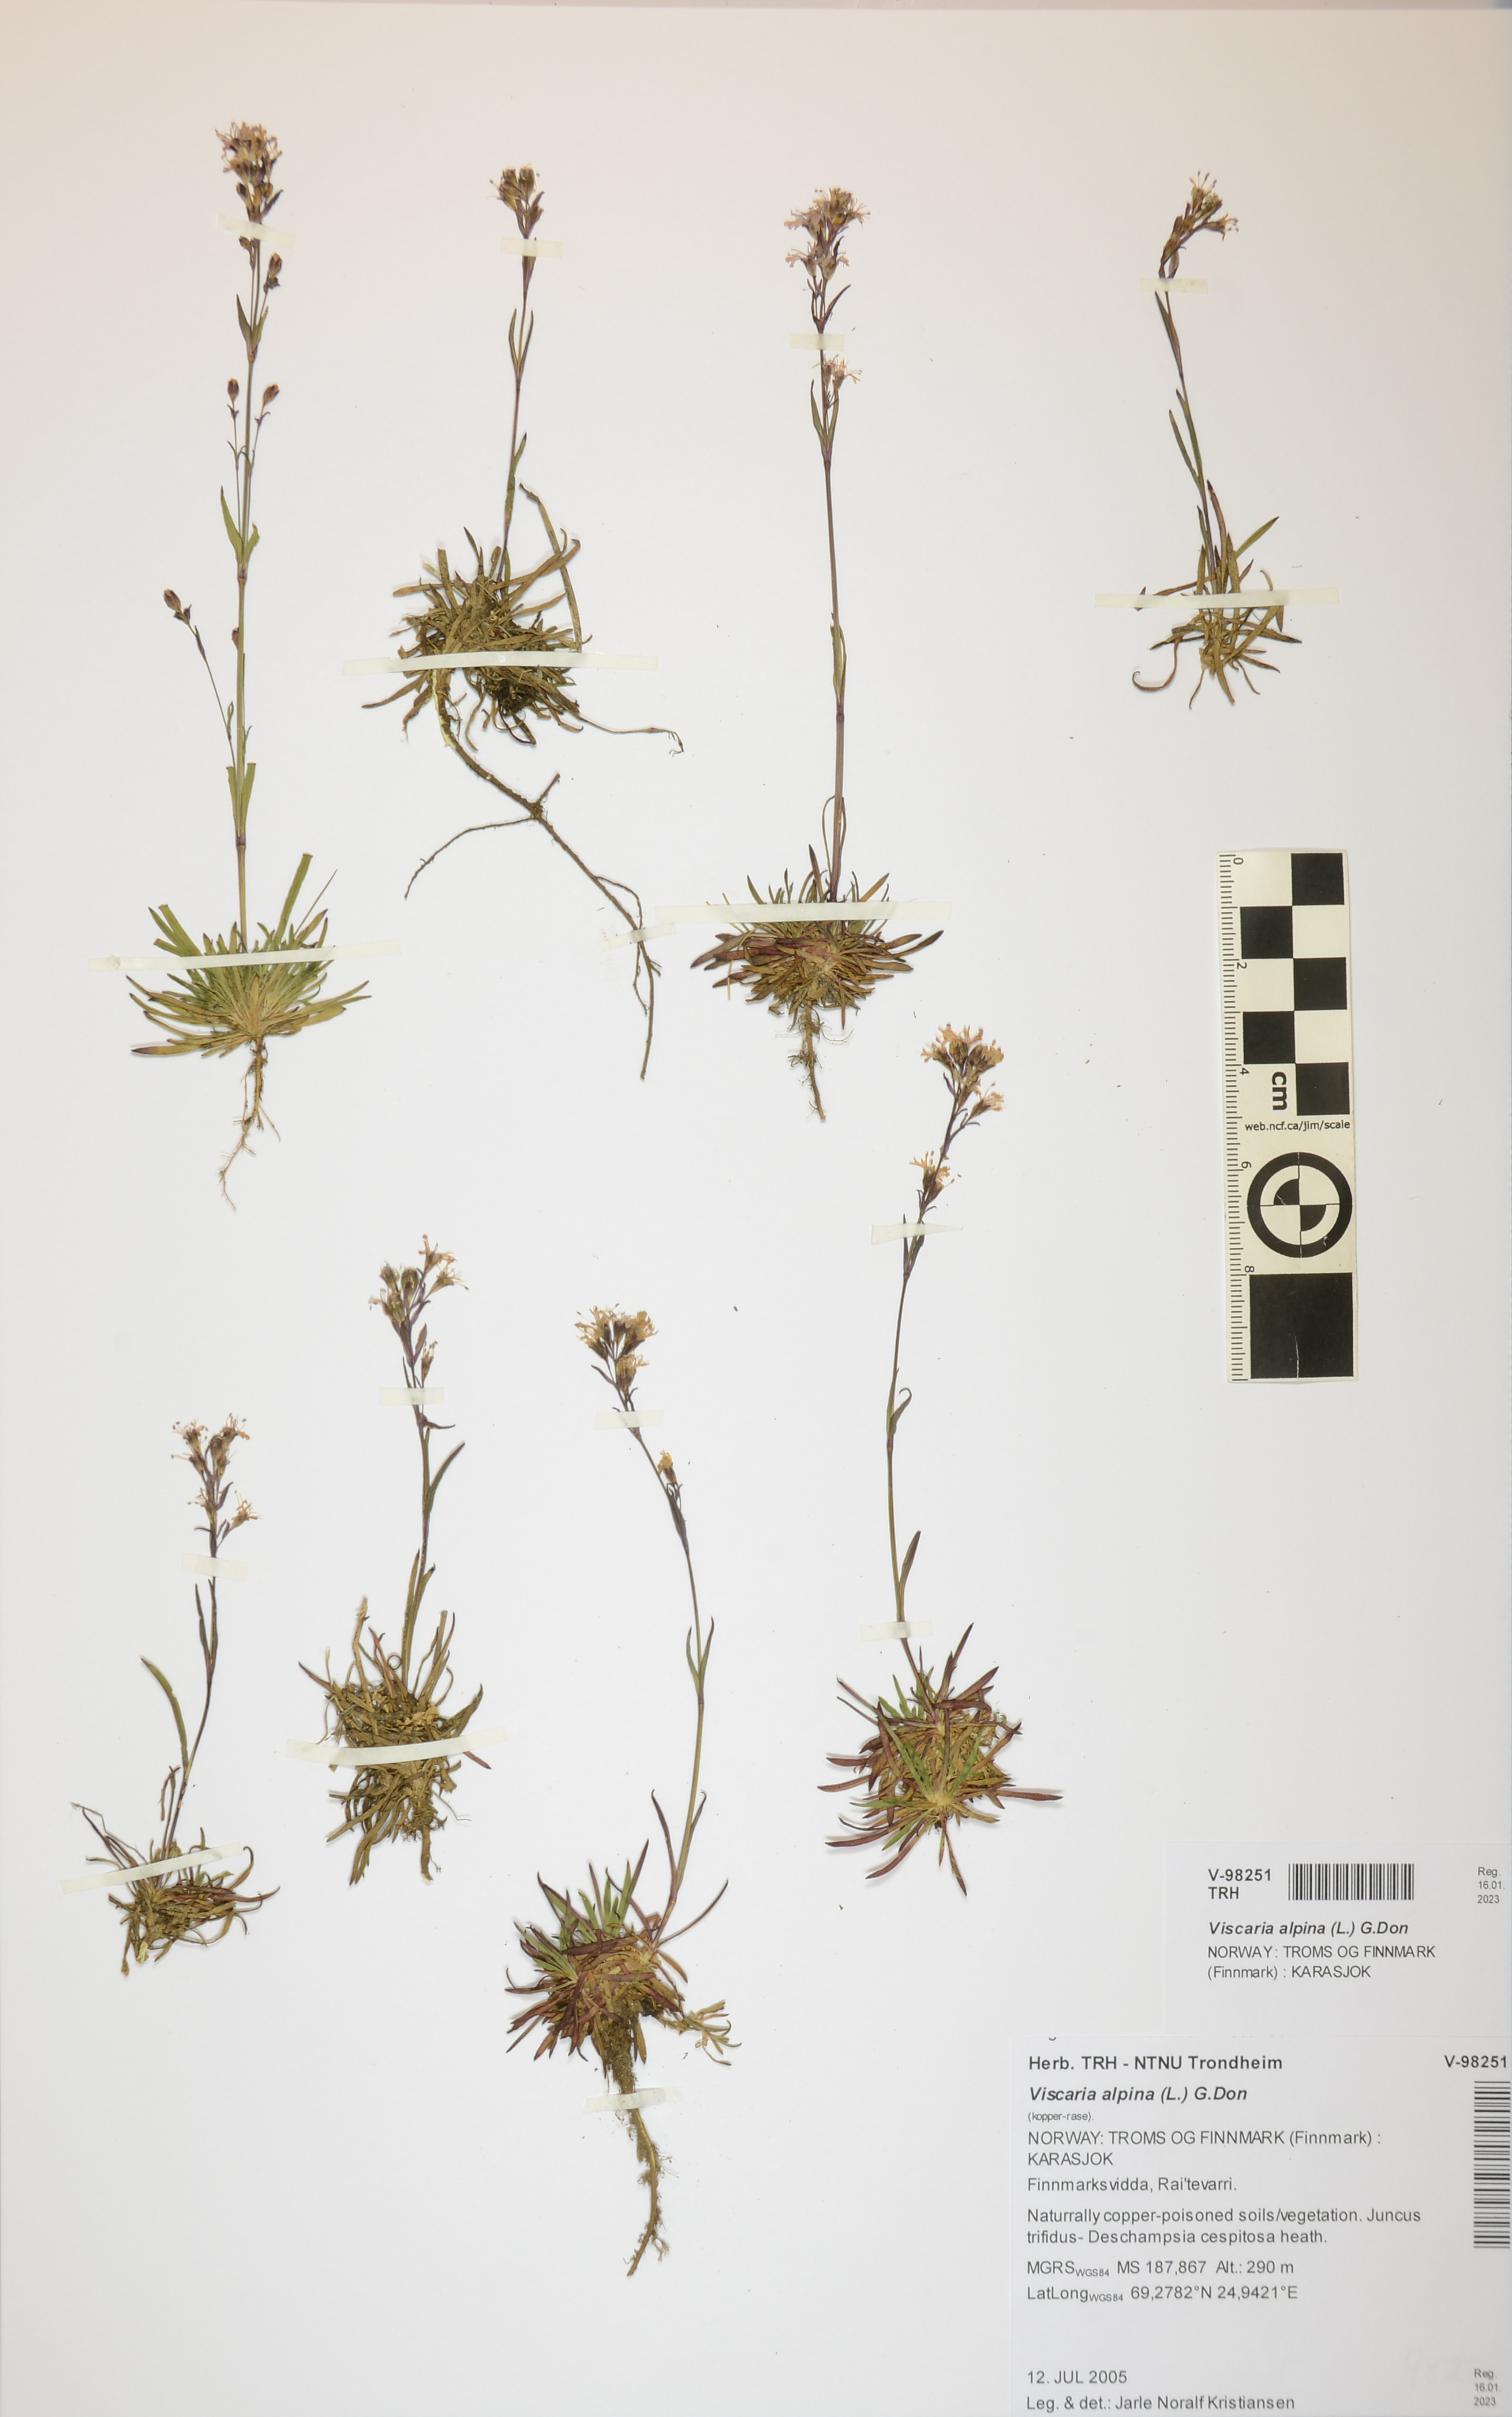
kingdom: Plantae
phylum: Tracheophyta
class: Magnoliopsida
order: Caryophyllales
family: Caryophyllaceae
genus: Viscaria
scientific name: Viscaria alpina
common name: Alpine campion
